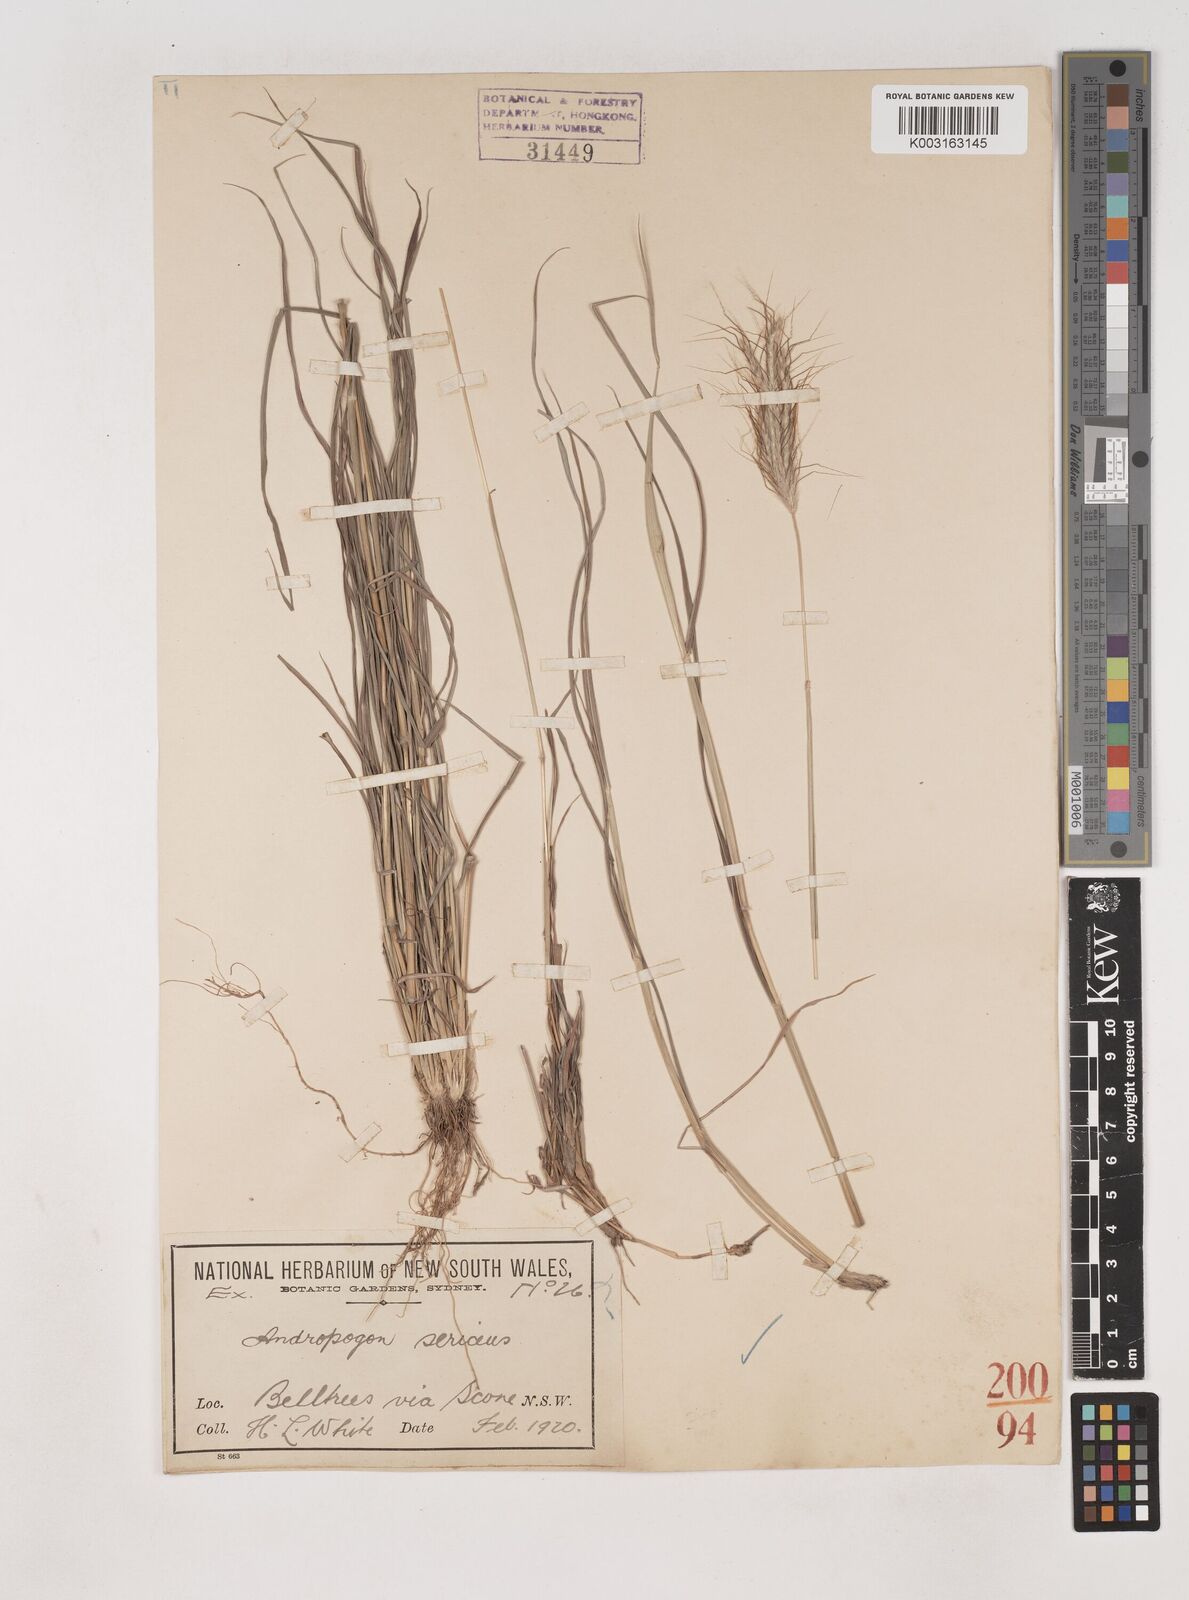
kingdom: Plantae
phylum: Tracheophyta
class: Liliopsida
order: Poales
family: Poaceae
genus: Dichanthium
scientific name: Dichanthium sericeum
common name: Silky bluestem
